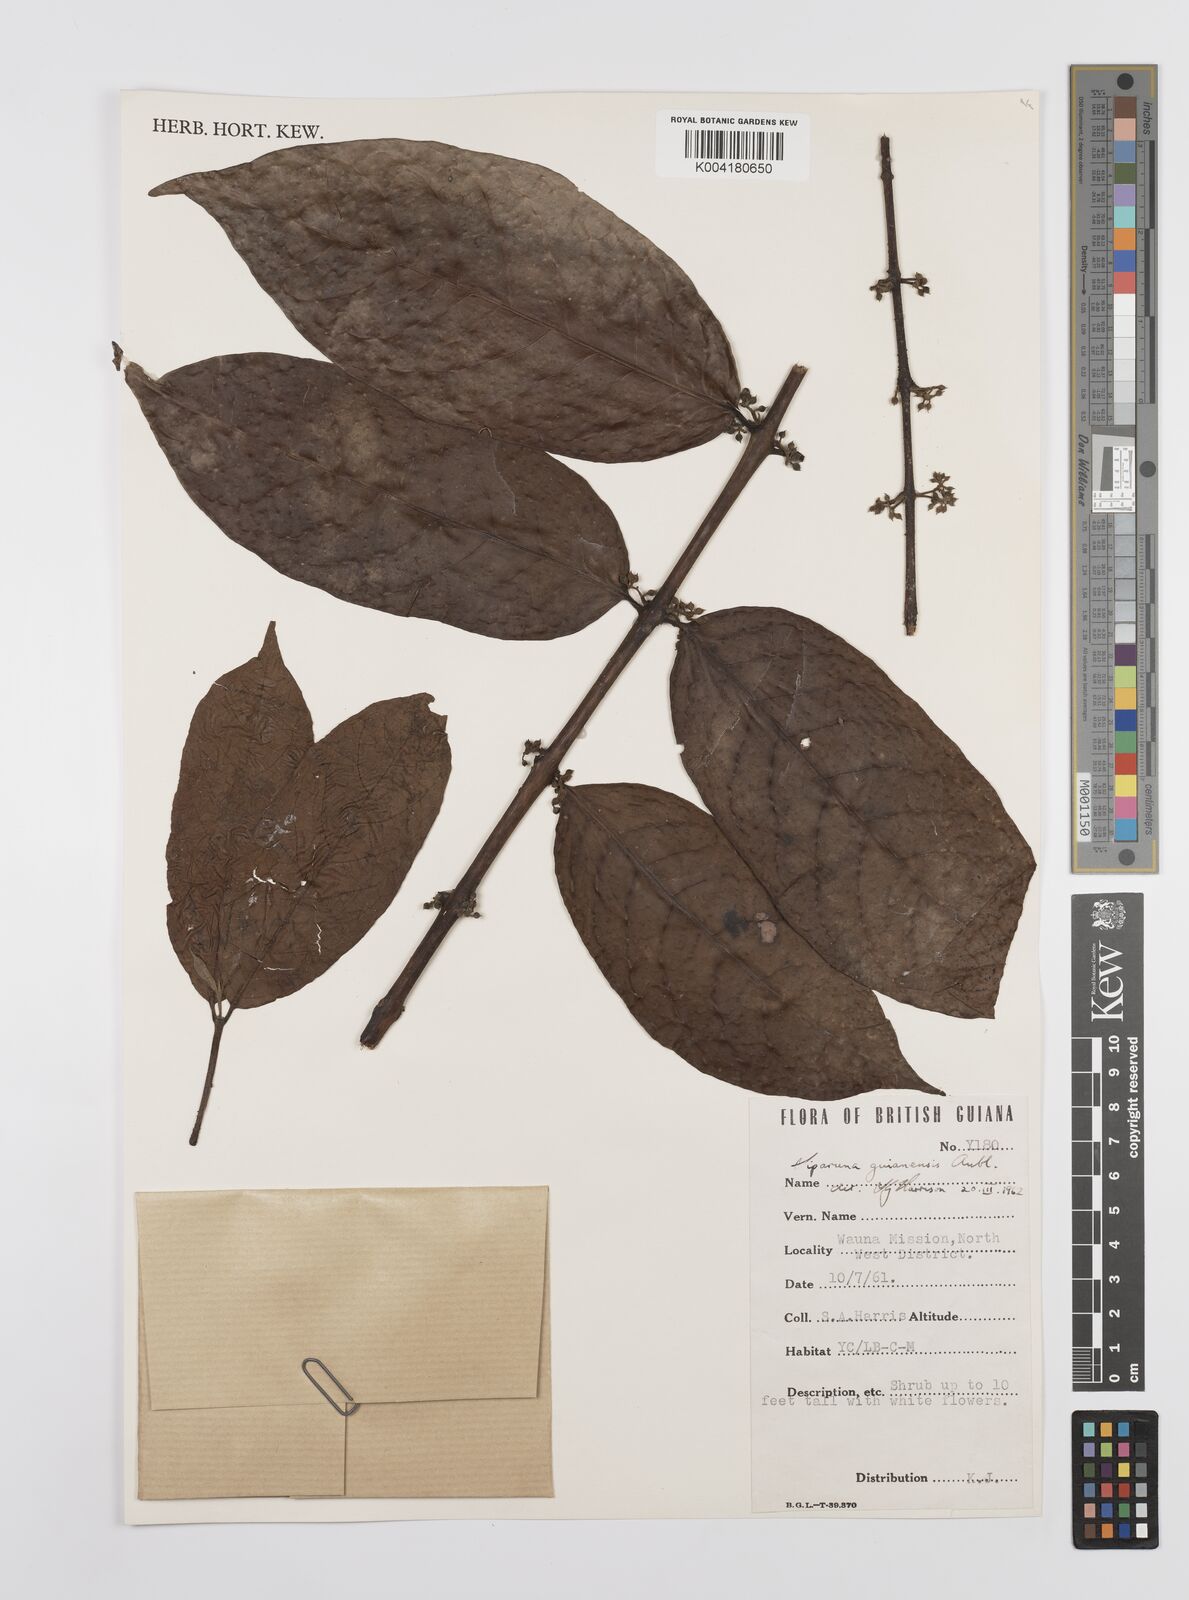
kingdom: Plantae
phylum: Tracheophyta
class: Magnoliopsida
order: Laurales
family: Siparunaceae
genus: Siparuna
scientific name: Siparuna guianensis
